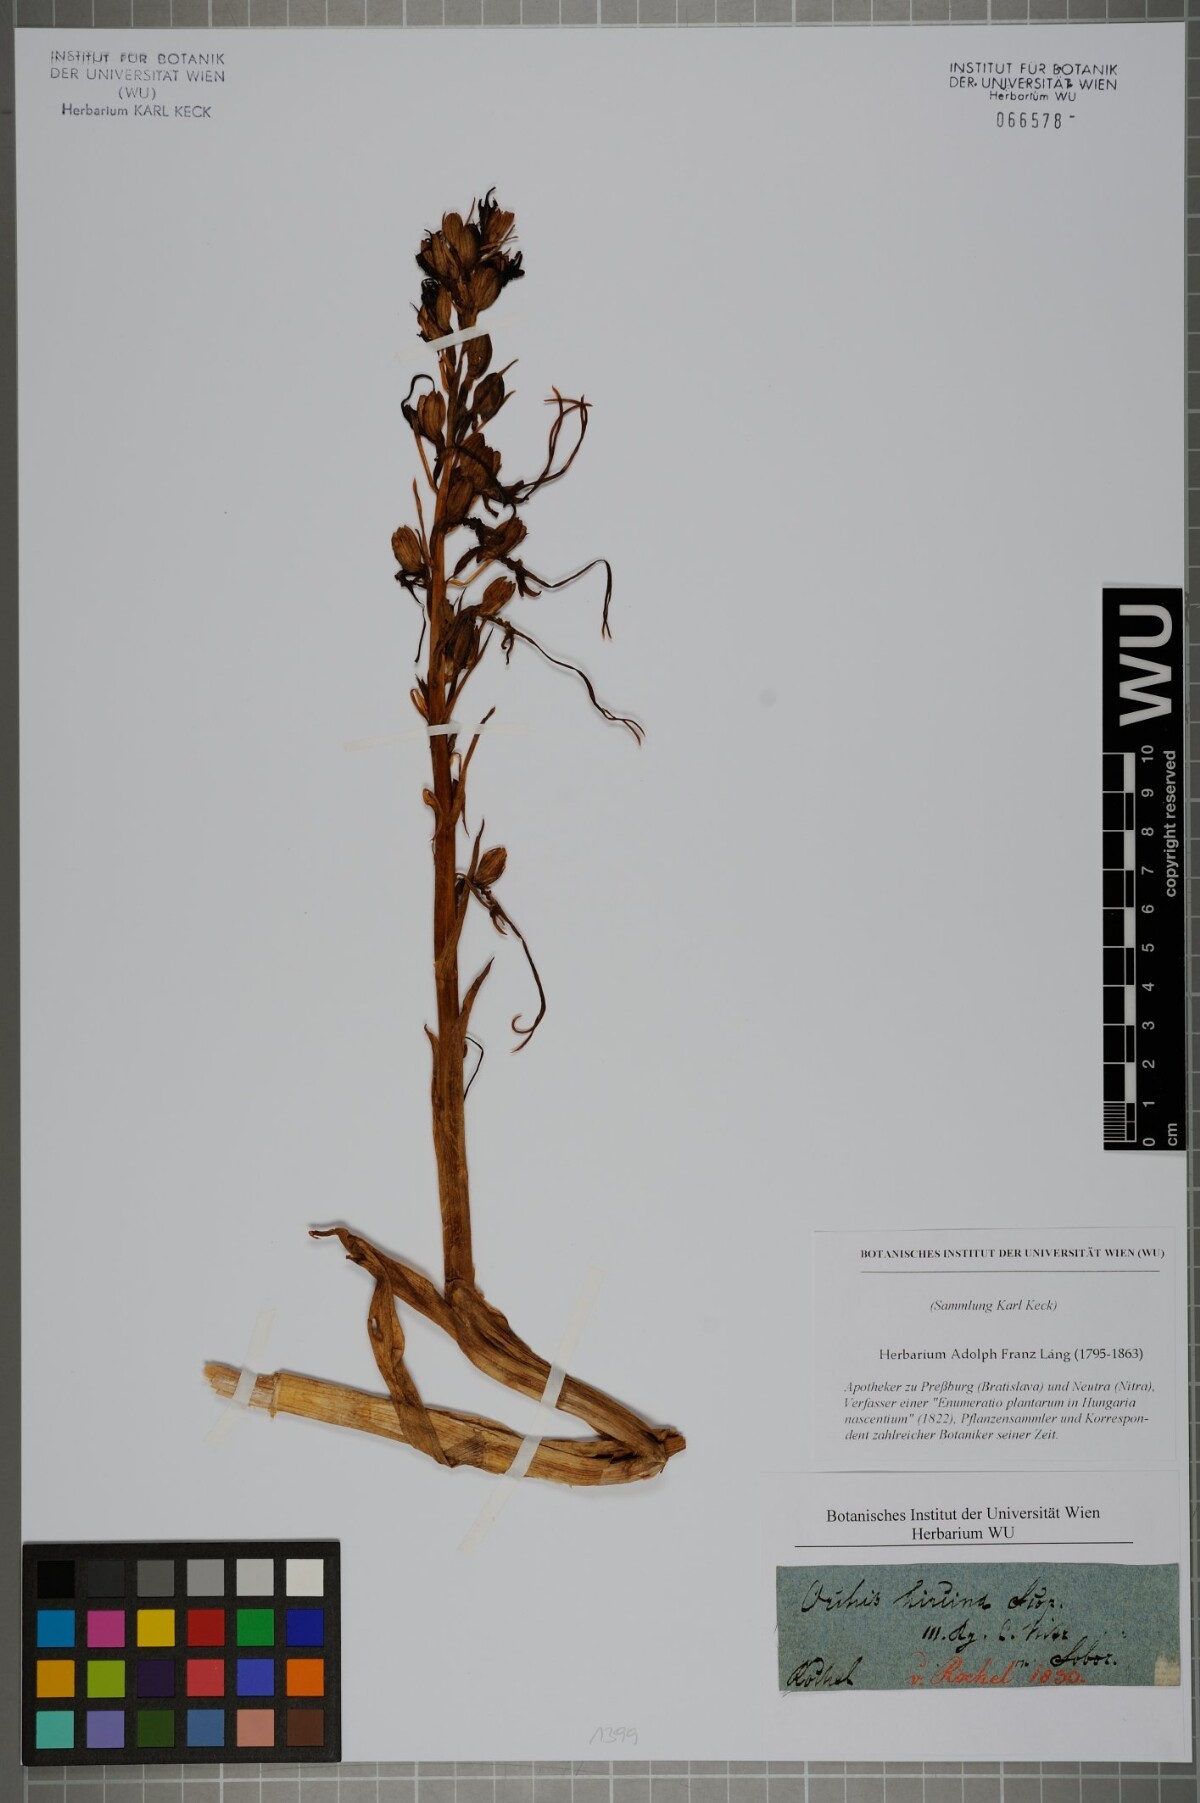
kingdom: Plantae
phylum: Tracheophyta
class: Liliopsida
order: Asparagales
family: Orchidaceae
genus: Himantoglossum
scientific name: Himantoglossum hircinum
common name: Lizard orchid
